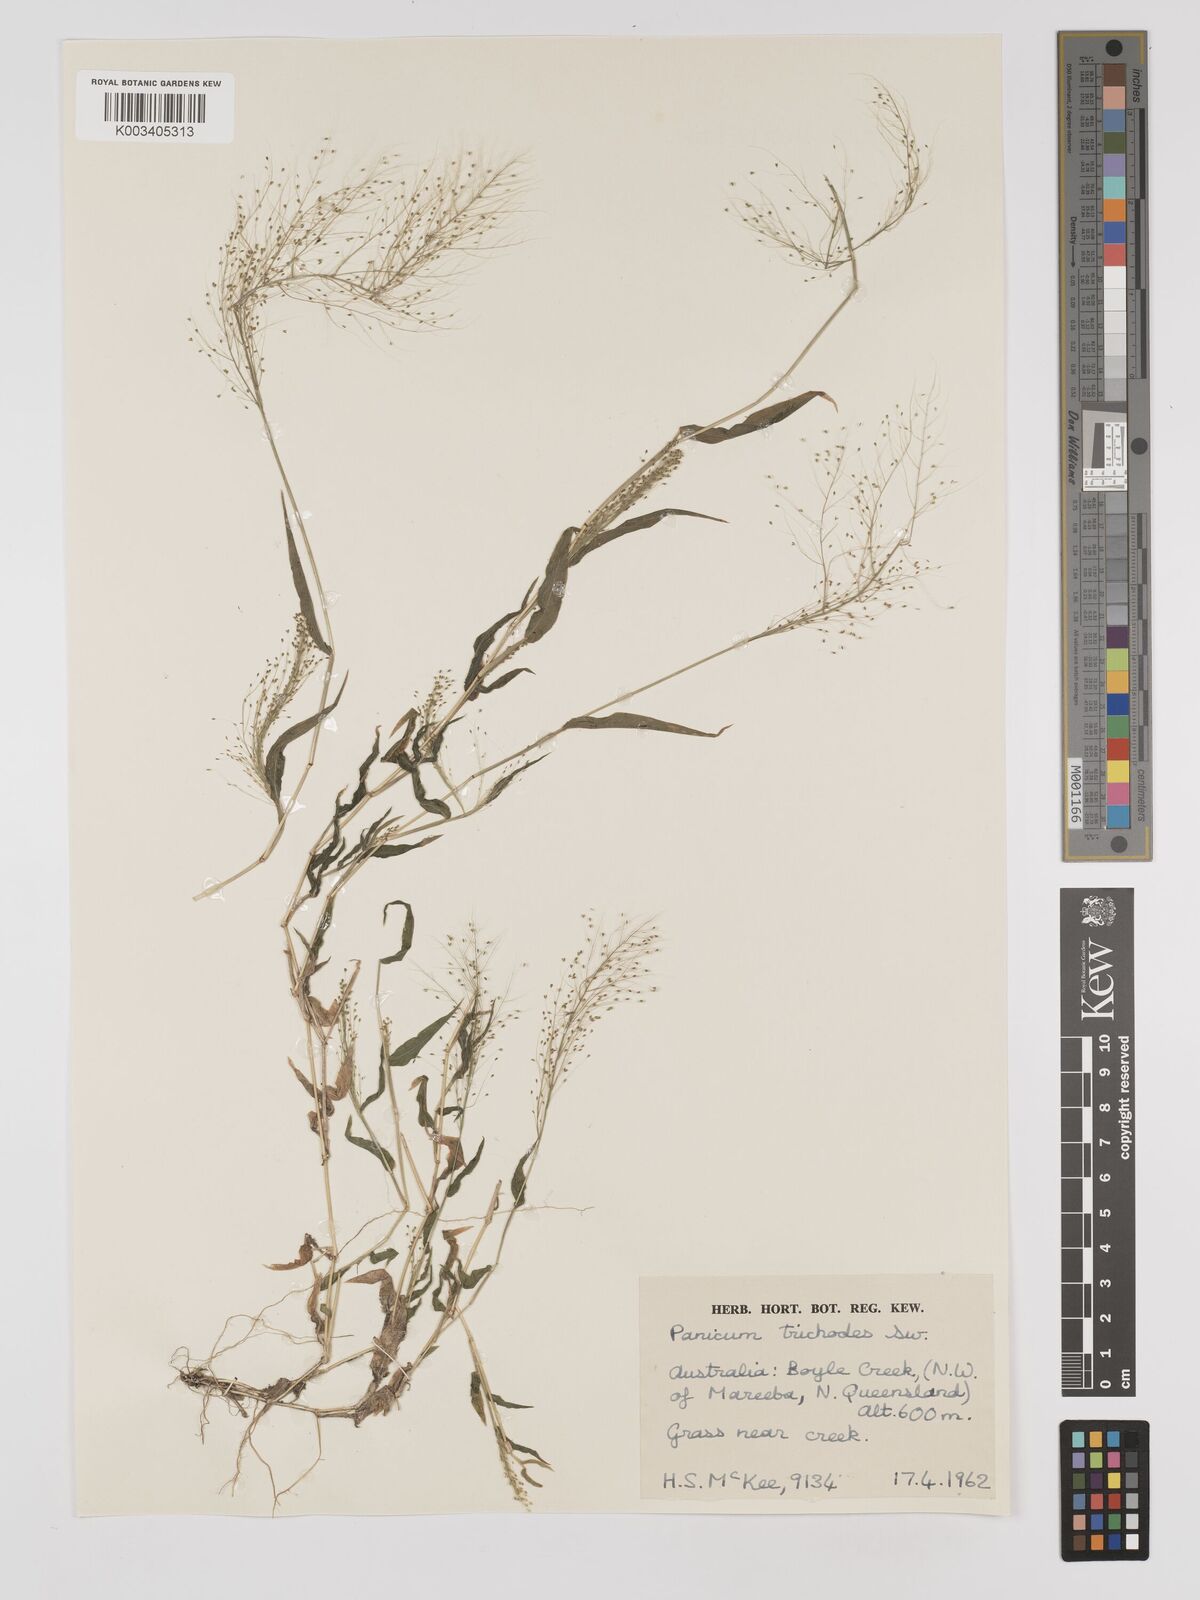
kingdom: Plantae
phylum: Tracheophyta
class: Liliopsida
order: Poales
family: Poaceae
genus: Panicum
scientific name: Panicum trichoides
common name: Tickle grass
